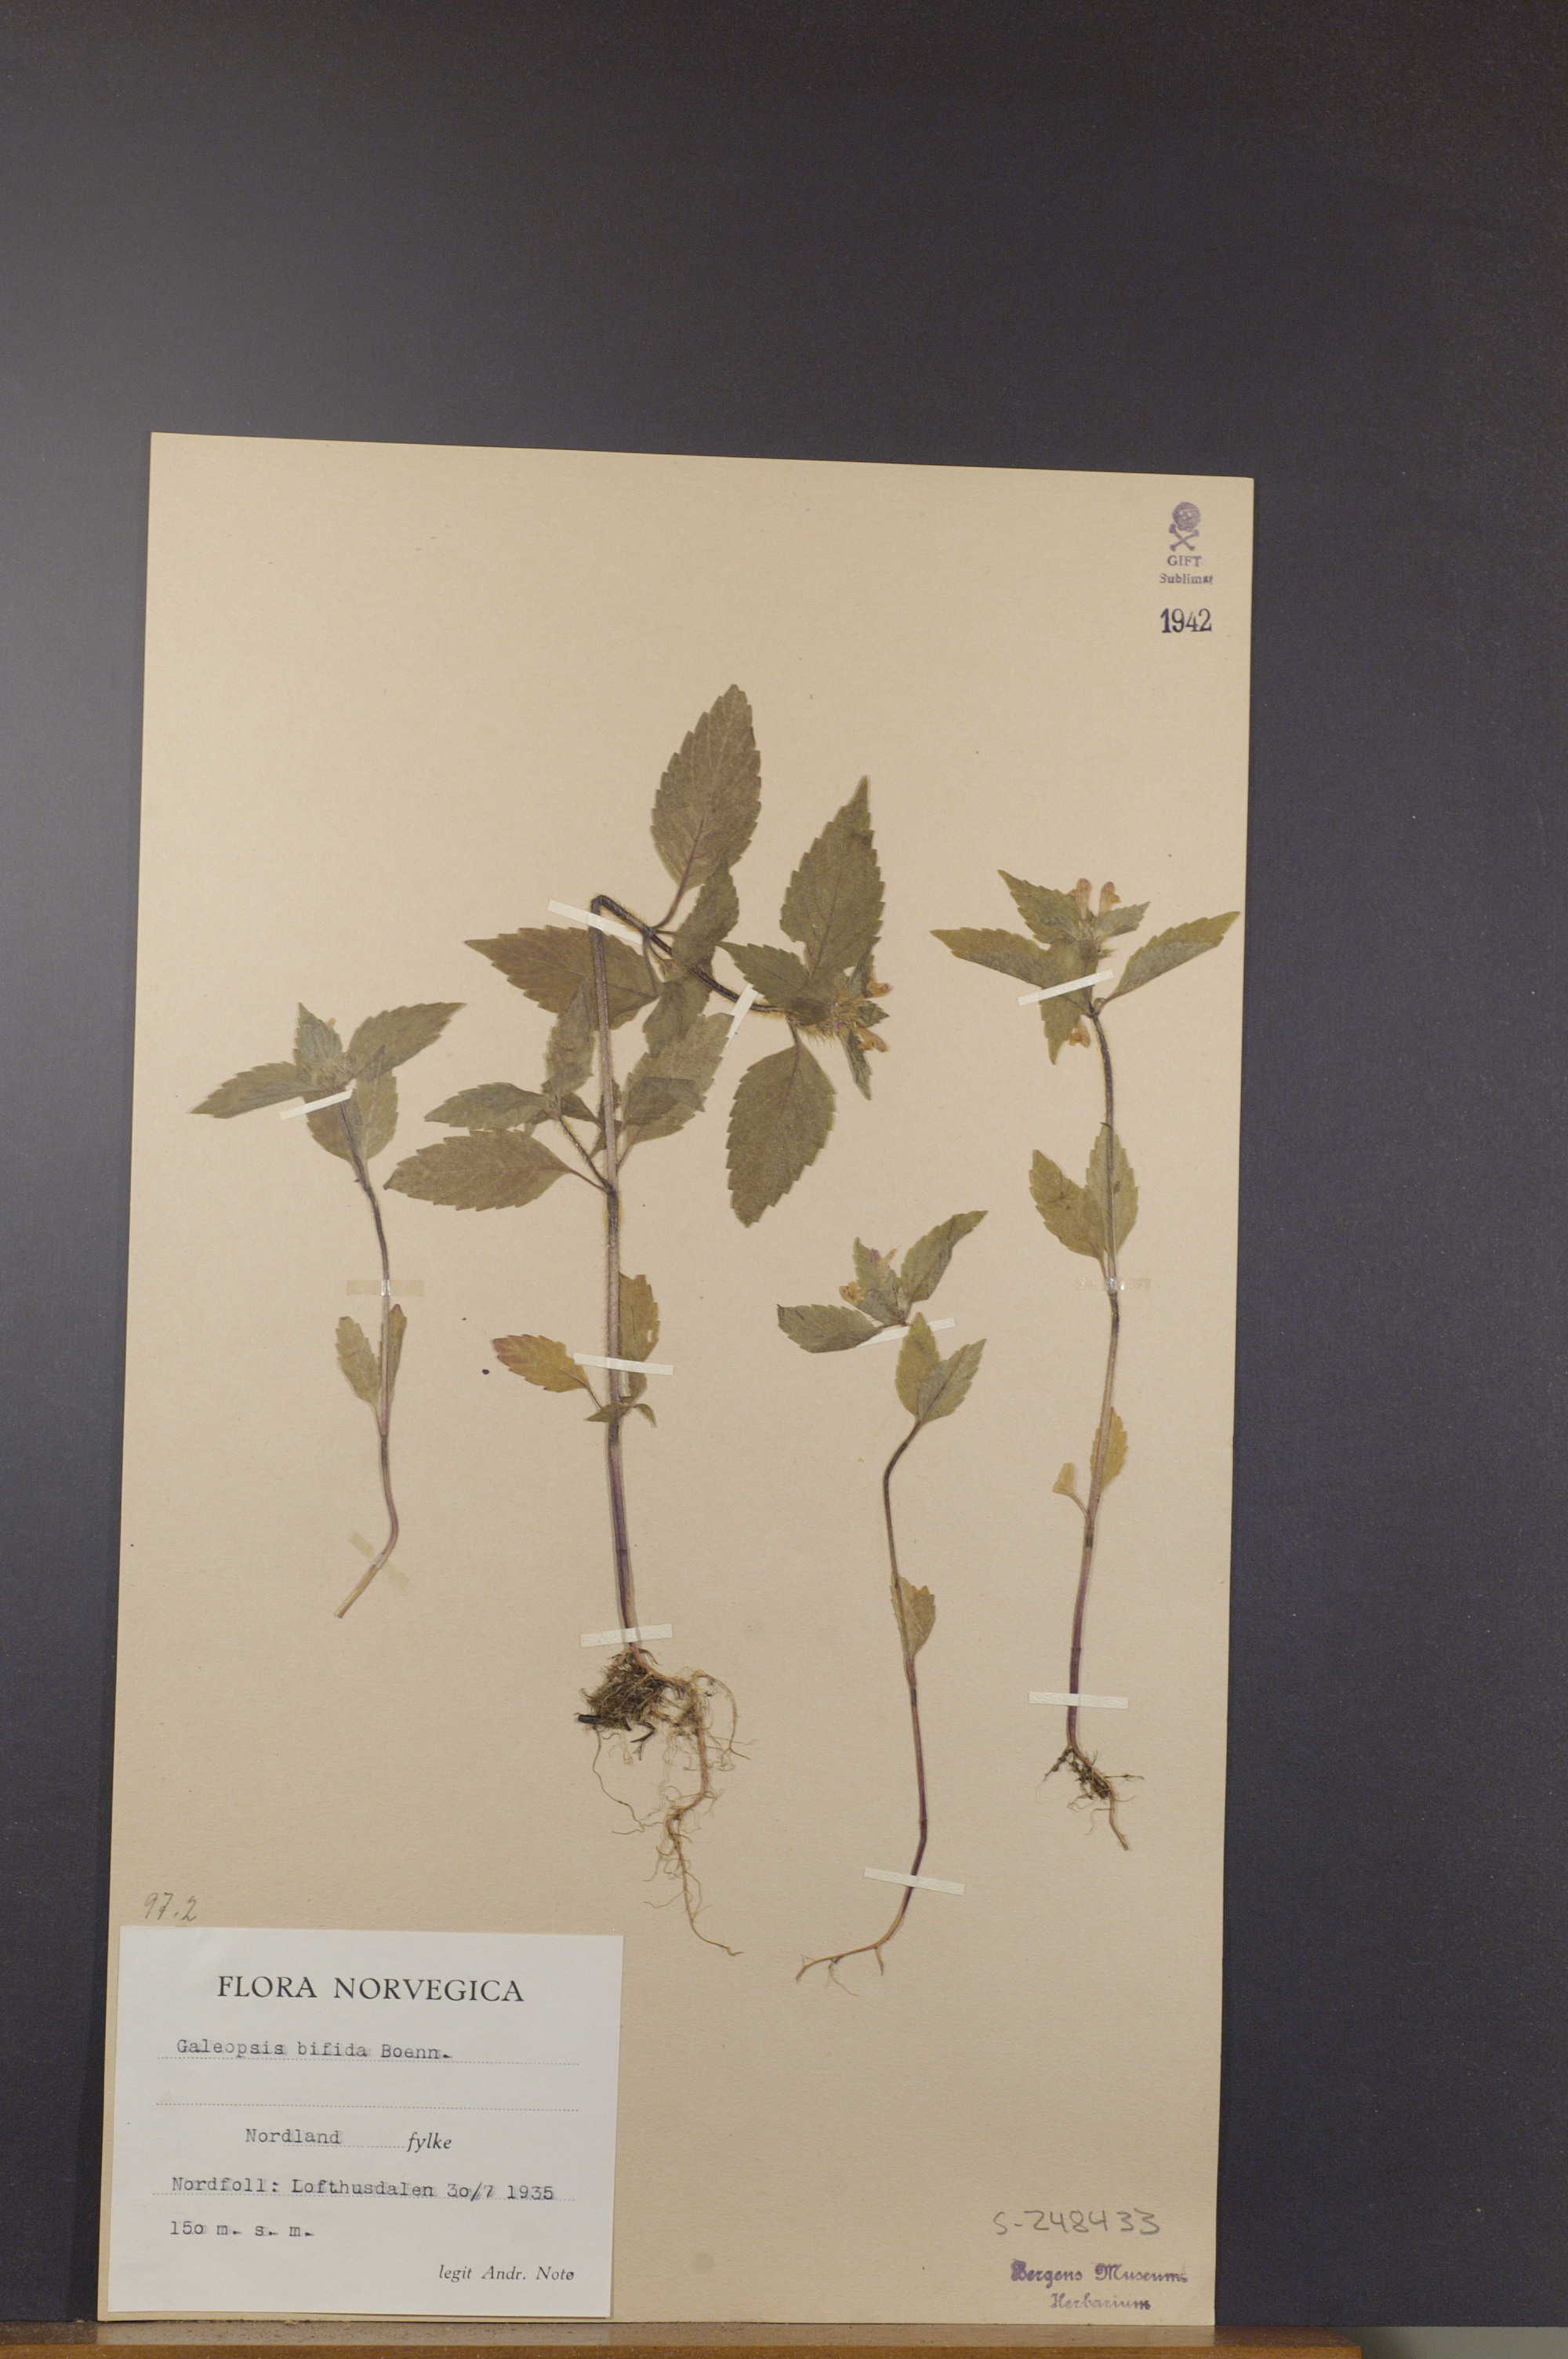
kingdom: Plantae
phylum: Tracheophyta
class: Magnoliopsida
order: Lamiales
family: Lamiaceae
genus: Galeopsis
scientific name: Galeopsis bifida
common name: Bifid hemp-nettle
